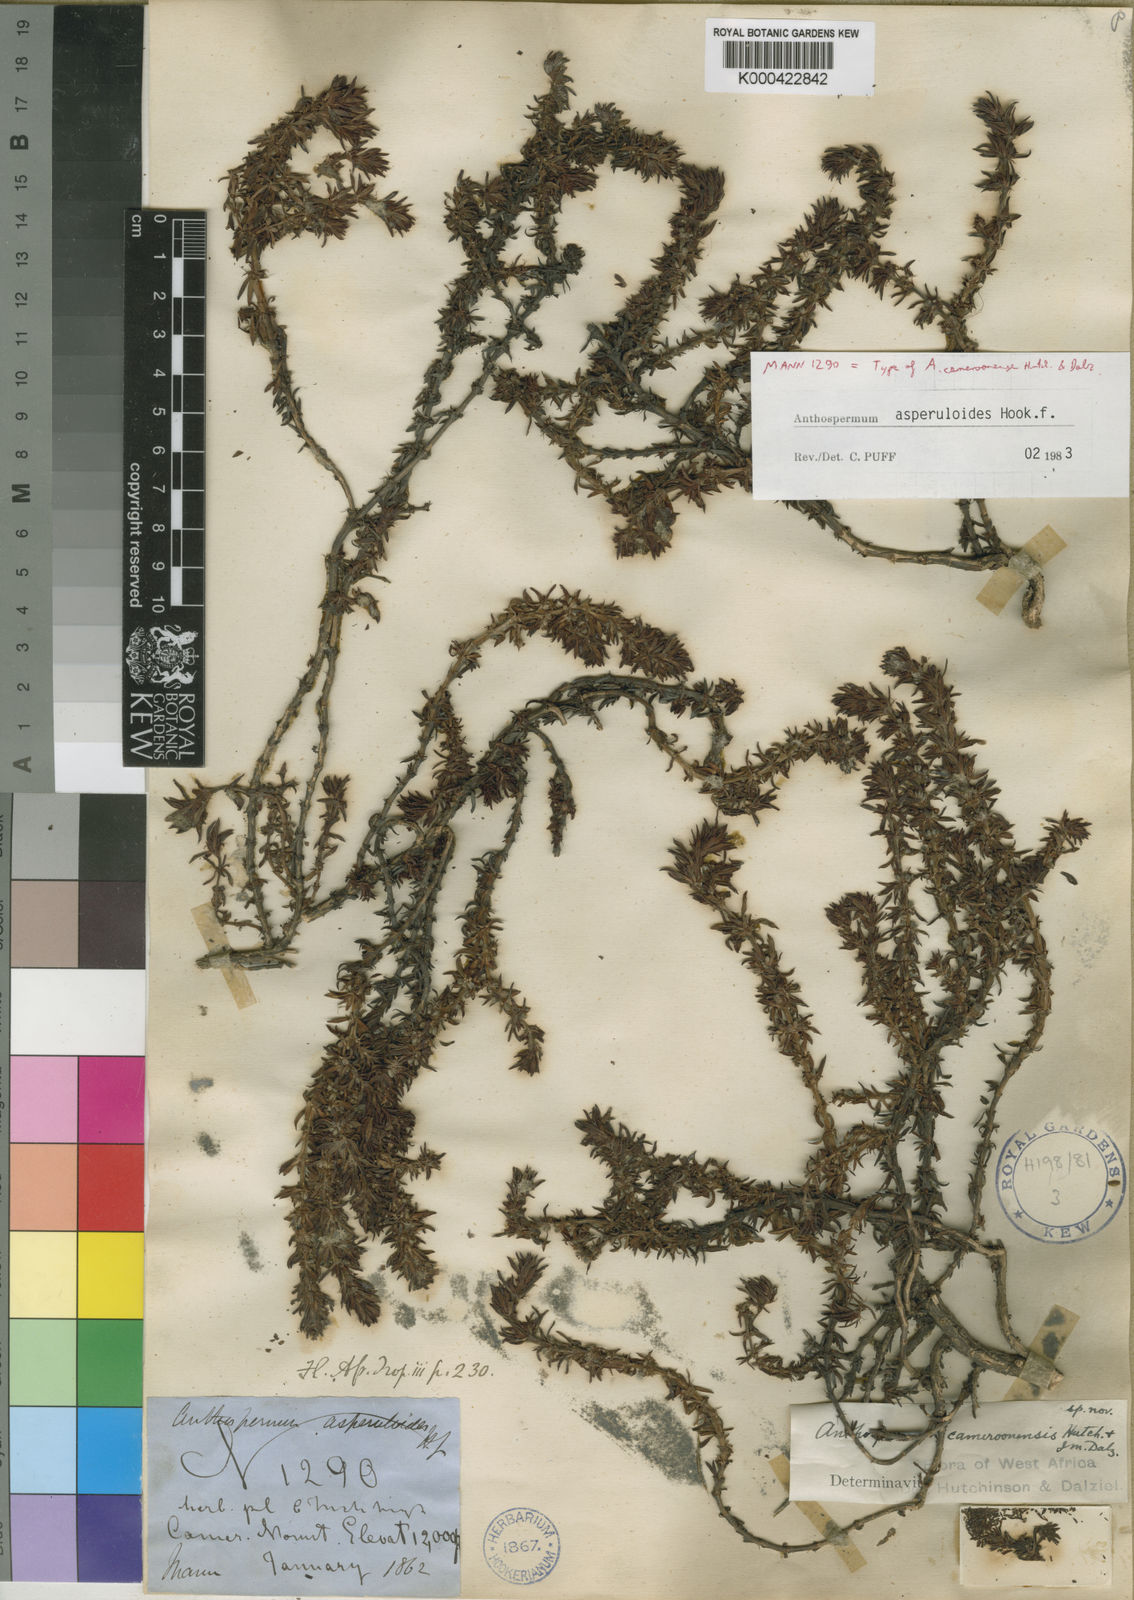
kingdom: Plantae
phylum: Tracheophyta
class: Magnoliopsida
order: Gentianales
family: Rubiaceae
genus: Anthospermum
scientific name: Anthospermum asperuloides
